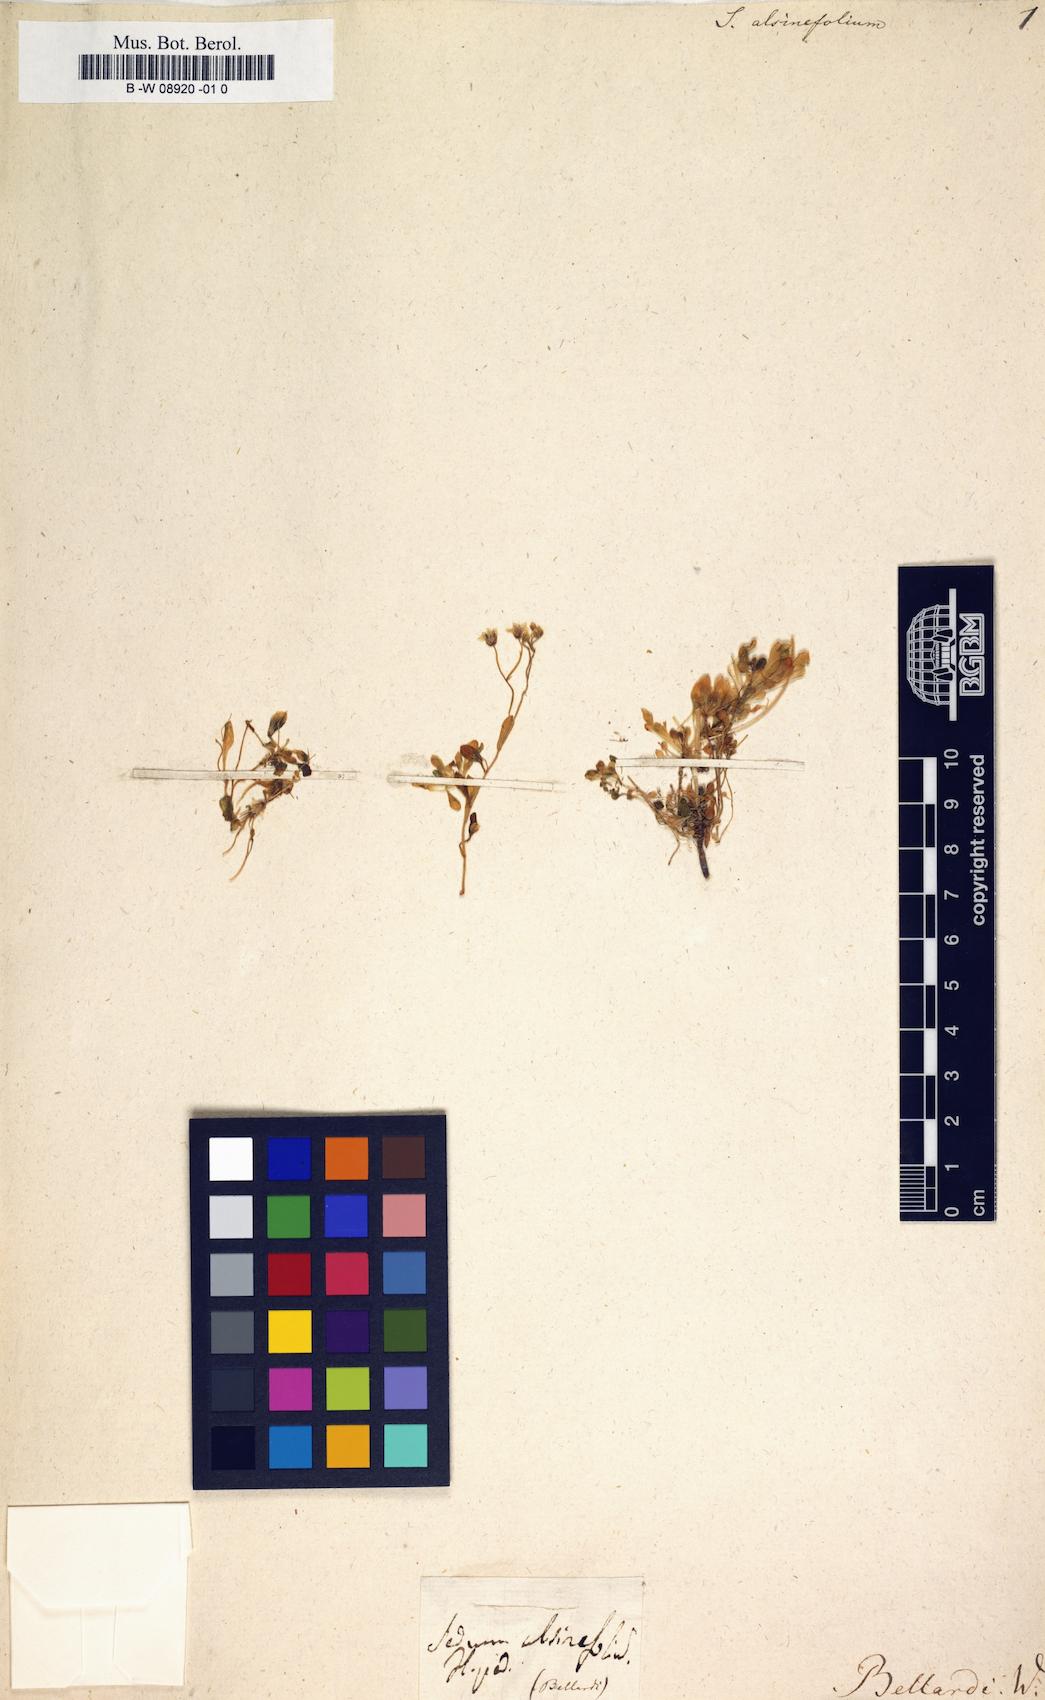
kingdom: Plantae
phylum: Tracheophyta
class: Magnoliopsida
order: Saxifragales
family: Crassulaceae
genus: Sedum
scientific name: Sedum alsinifolium
